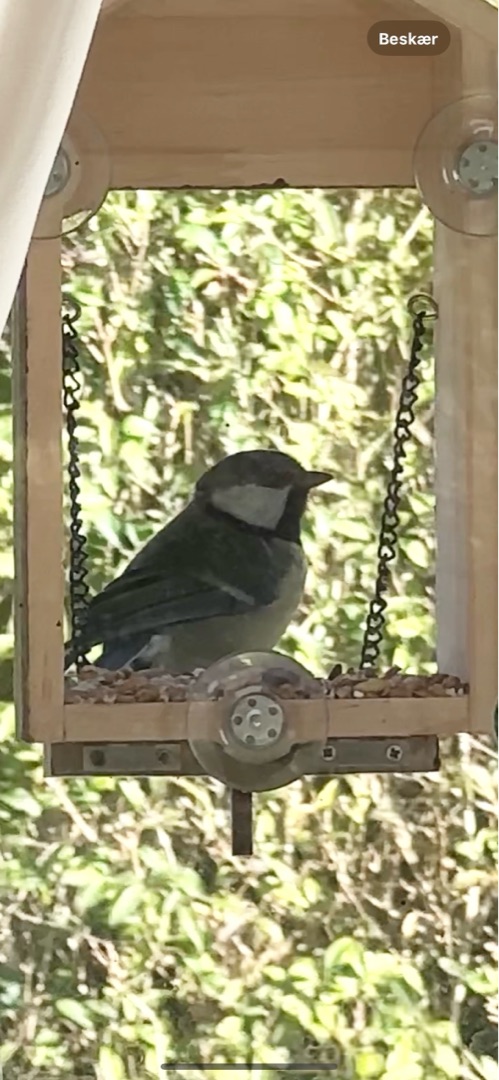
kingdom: Animalia
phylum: Chordata
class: Aves
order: Passeriformes
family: Paridae
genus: Parus
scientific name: Parus major
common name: Musvit
